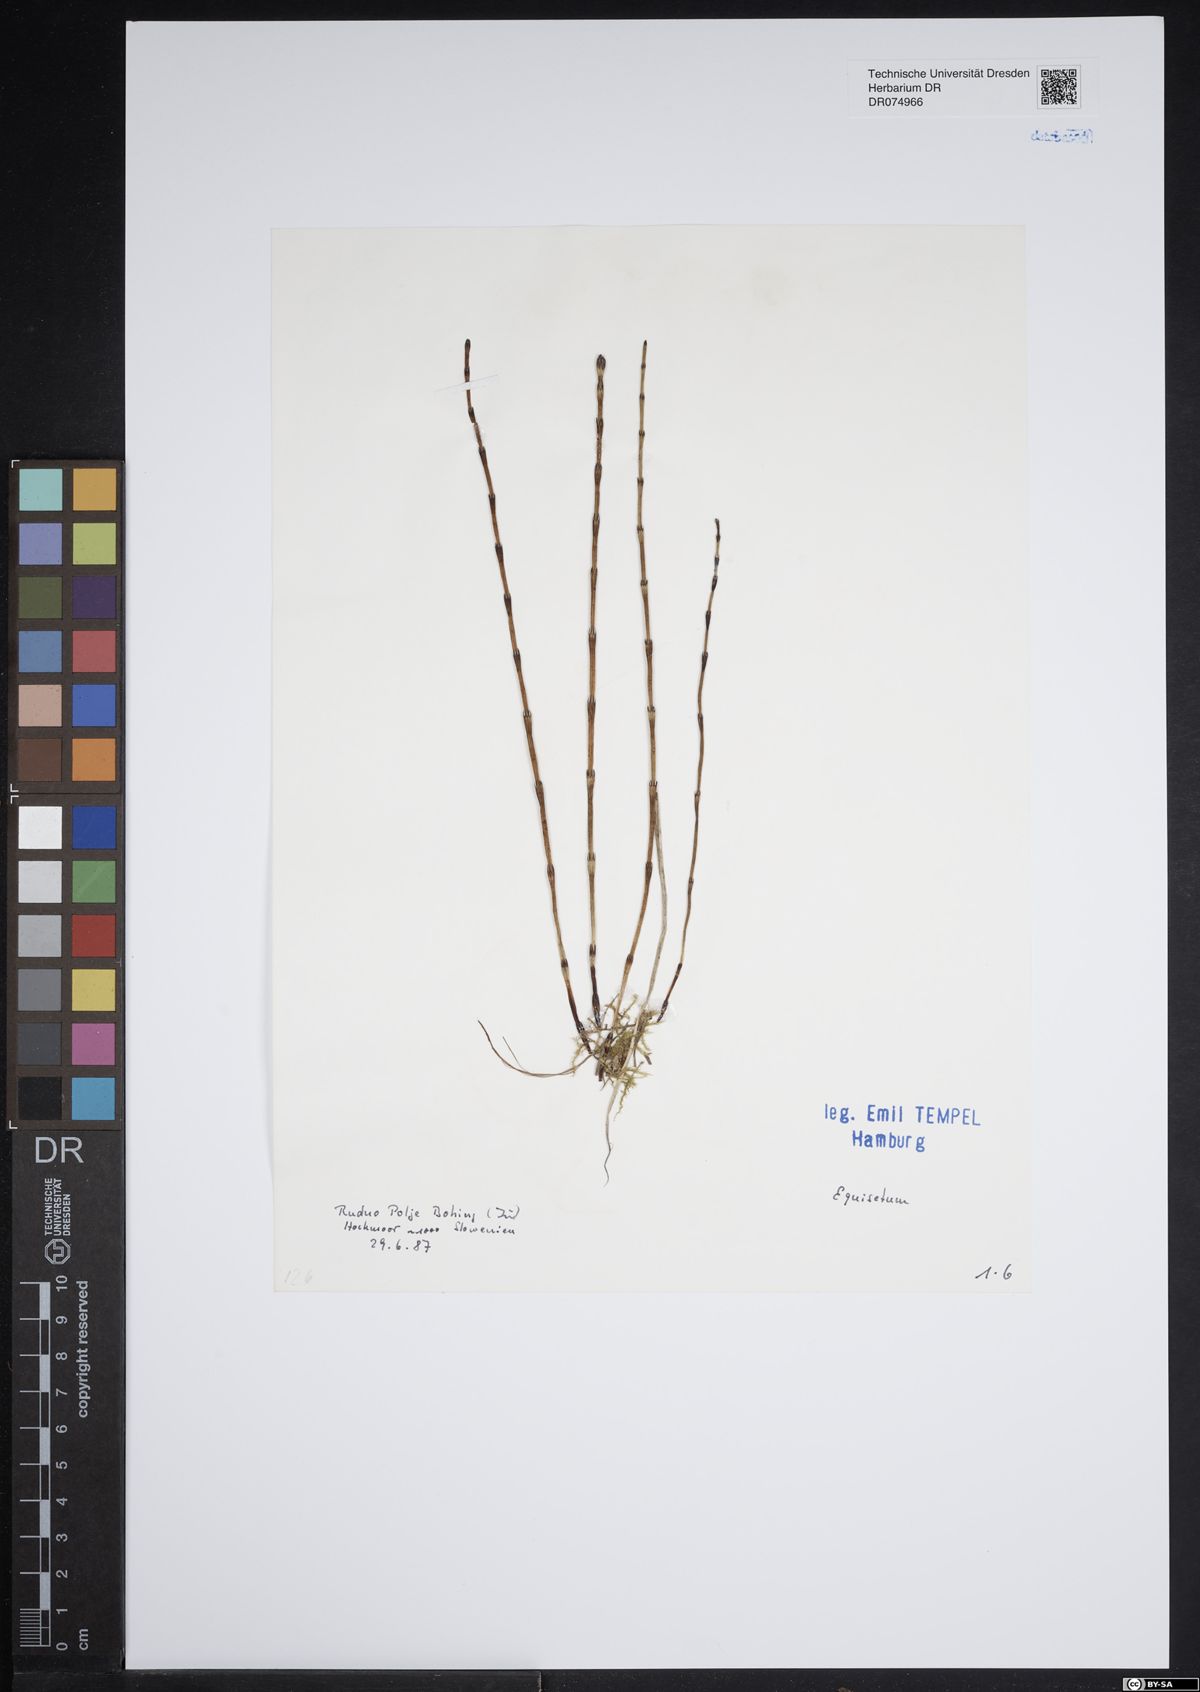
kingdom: Plantae
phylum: Tracheophyta
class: Polypodiopsida
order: Equisetales
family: Equisetaceae
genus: Equisetum
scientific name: Equisetum
